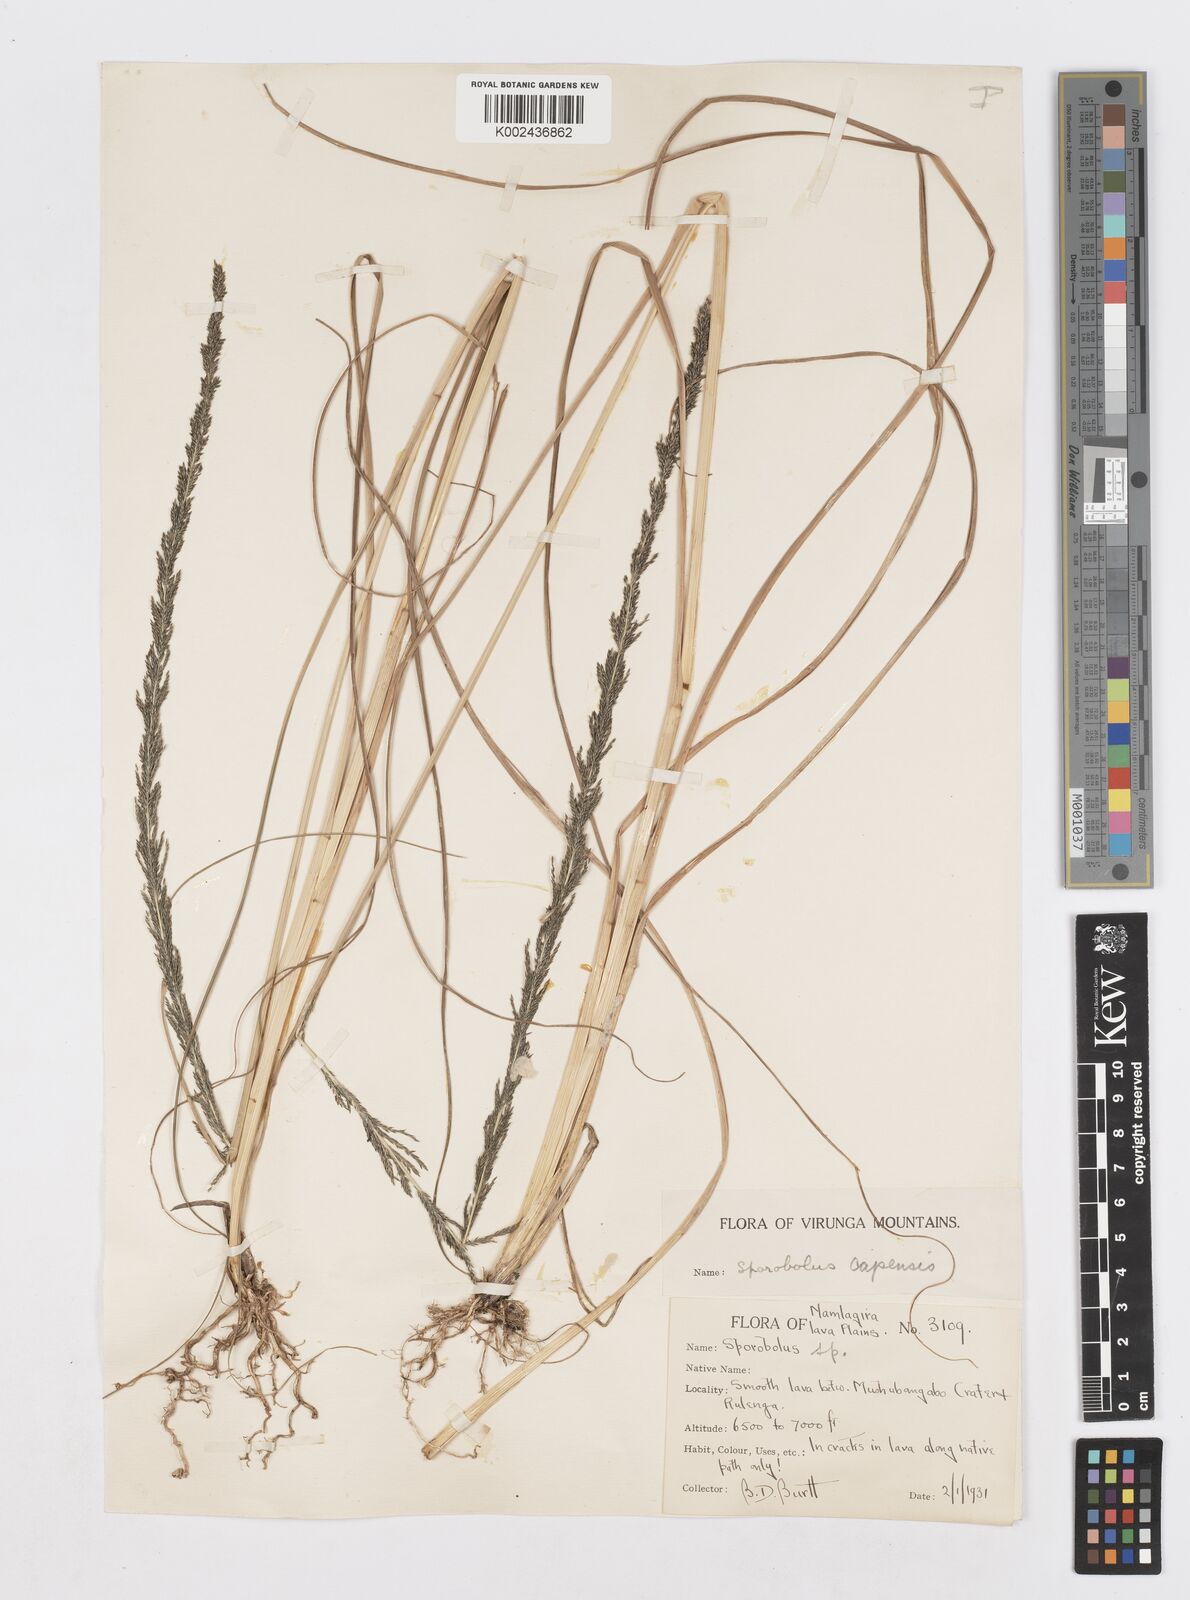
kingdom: Plantae
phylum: Tracheophyta
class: Liliopsida
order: Poales
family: Poaceae
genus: Sporobolus
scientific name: Sporobolus africanus
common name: African dropseed
